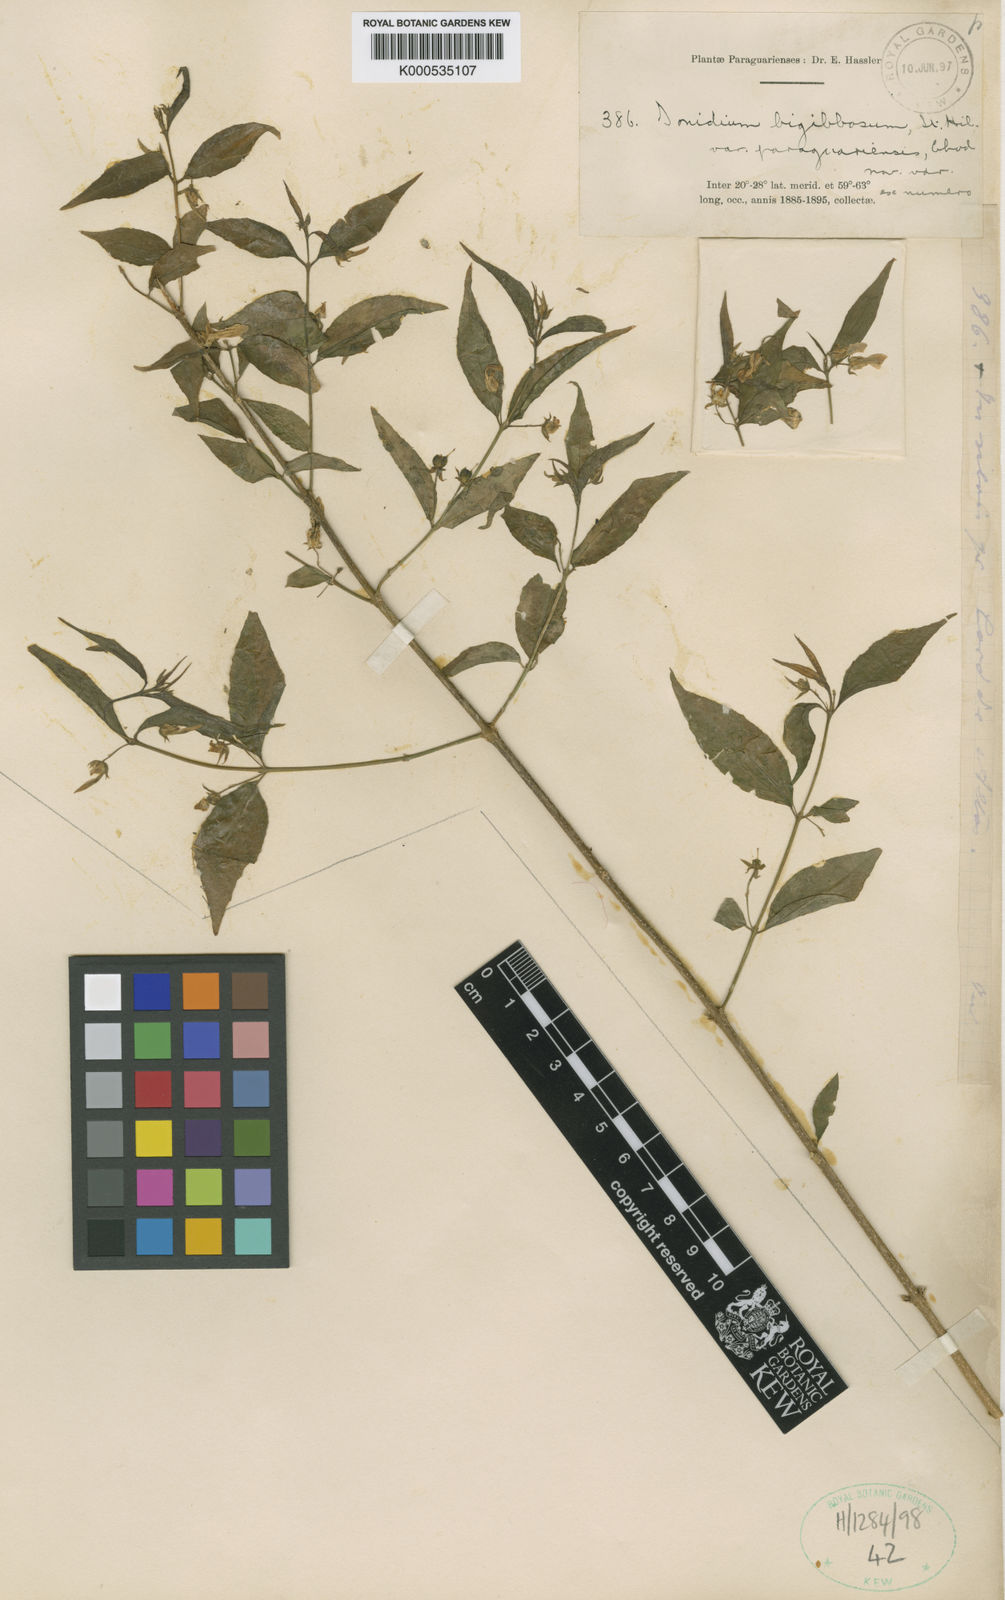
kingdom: Plantae
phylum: Tracheophyta
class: Magnoliopsida
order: Malpighiales
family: Violaceae
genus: Pombalia
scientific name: Pombalia bigibbosa
